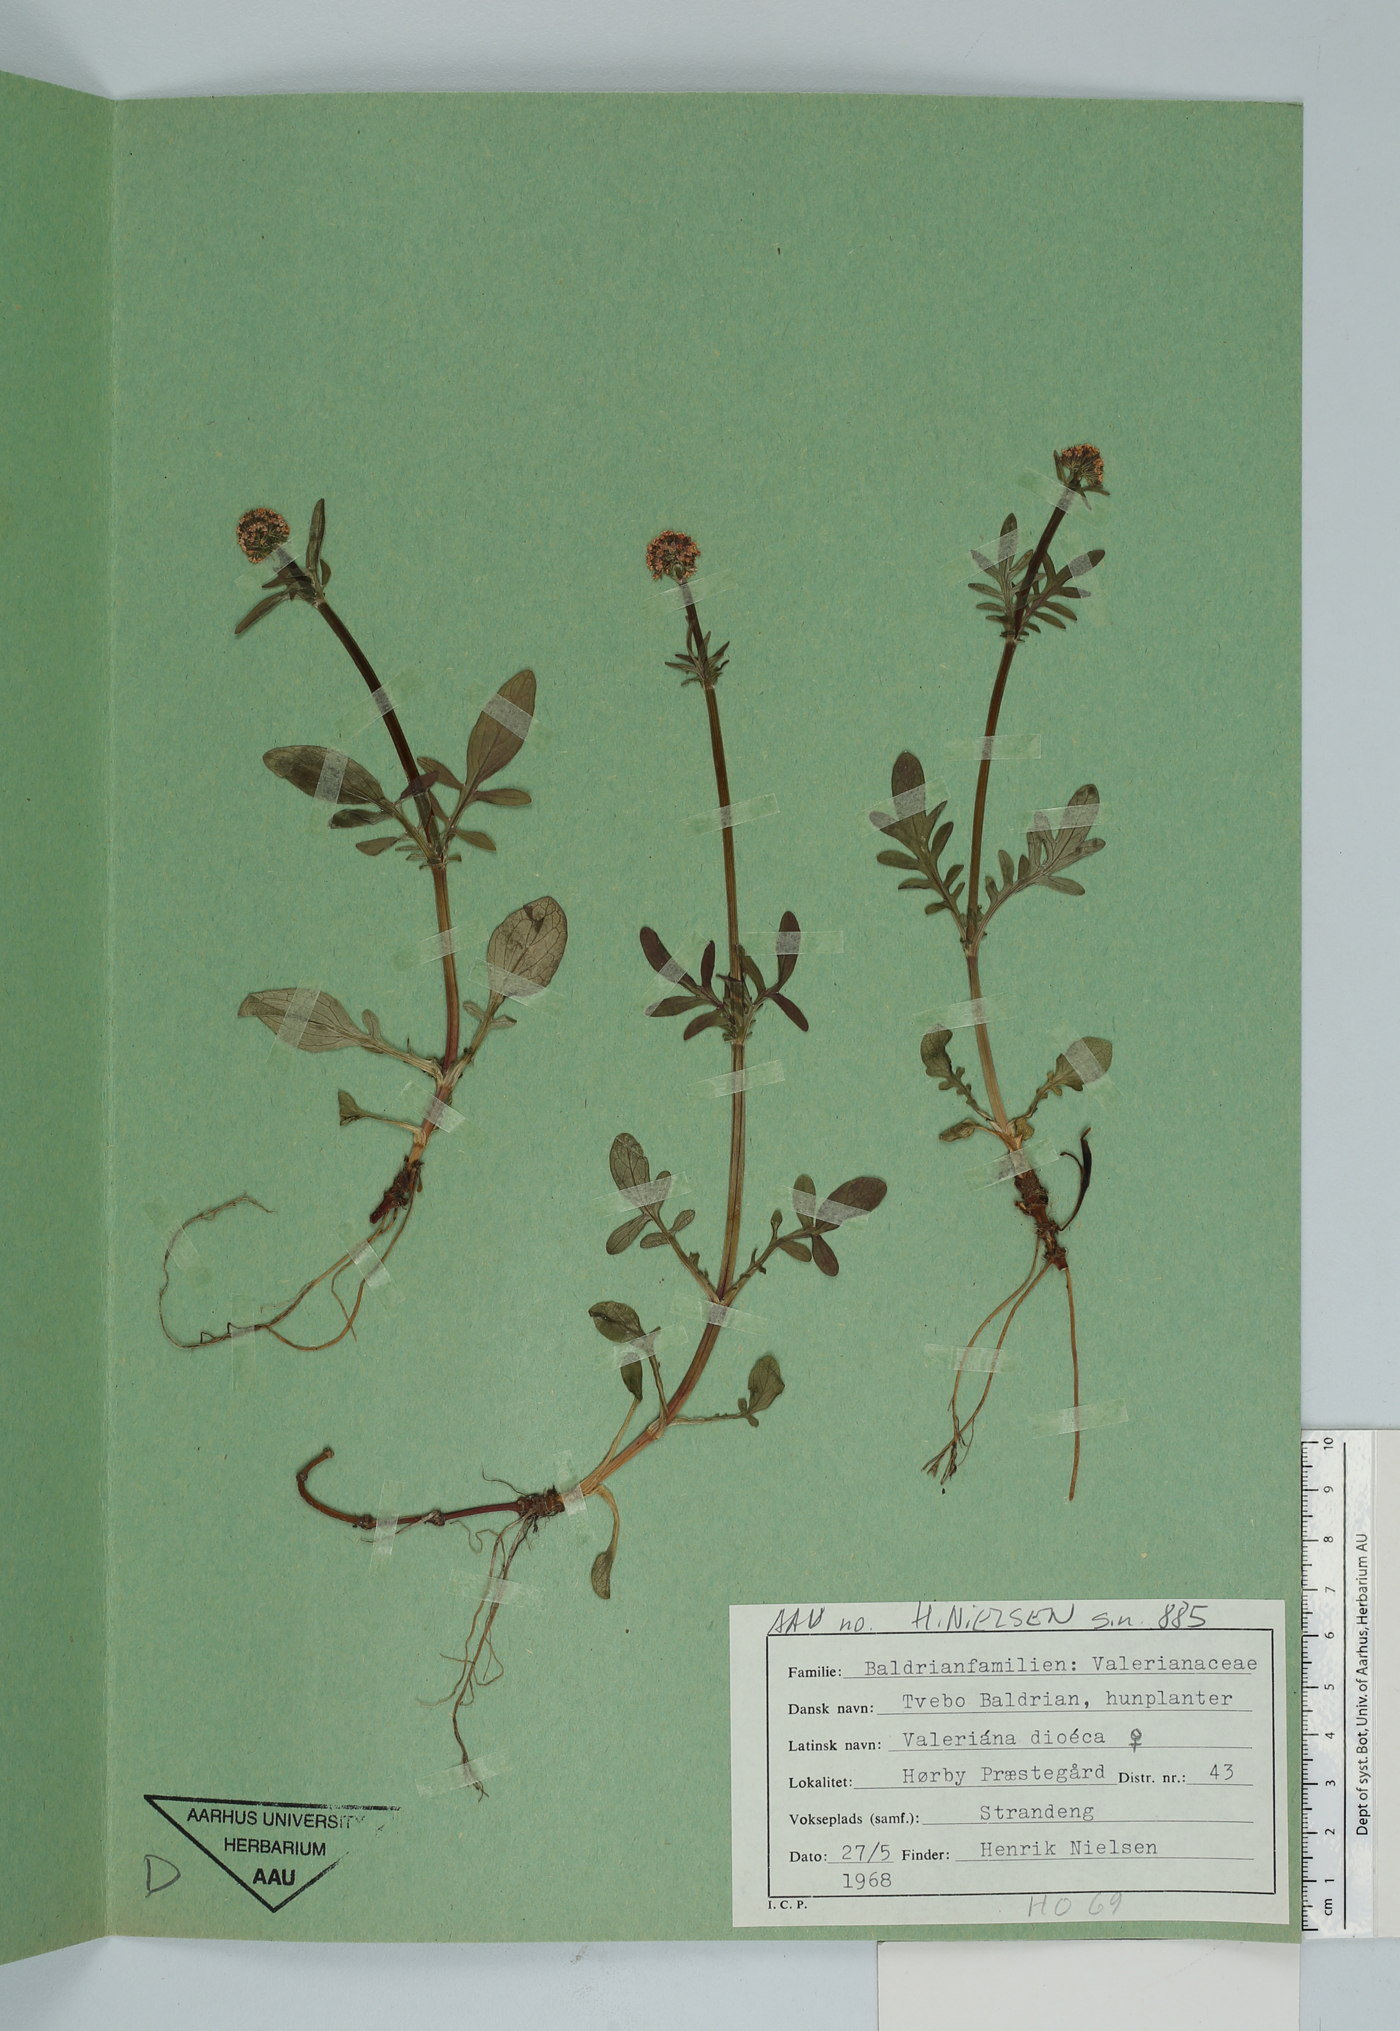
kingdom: Plantae
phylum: Tracheophyta
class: Magnoliopsida
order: Dipsacales
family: Caprifoliaceae
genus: Valeriana
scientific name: Valeriana dioica
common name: Marsh valerian
